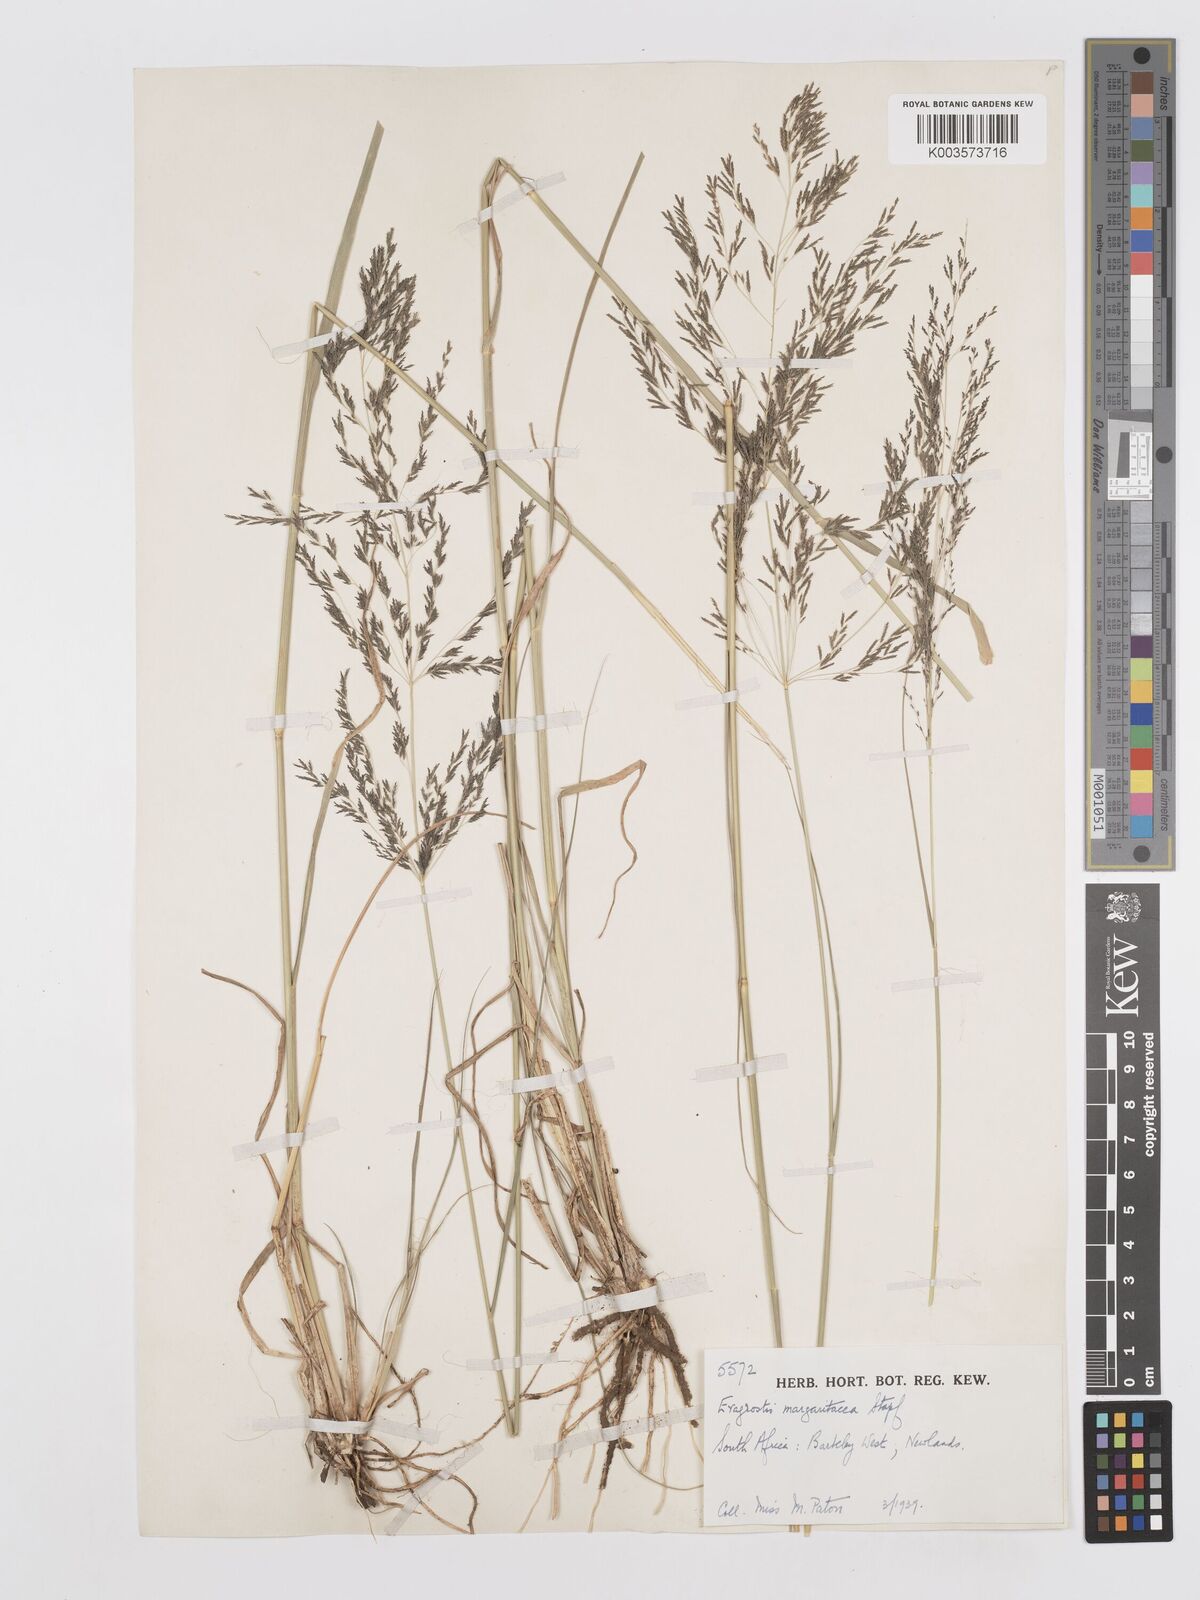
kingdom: Plantae
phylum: Tracheophyta
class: Liliopsida
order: Poales
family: Poaceae
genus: Eragrostis
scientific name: Eragrostis rotifer
